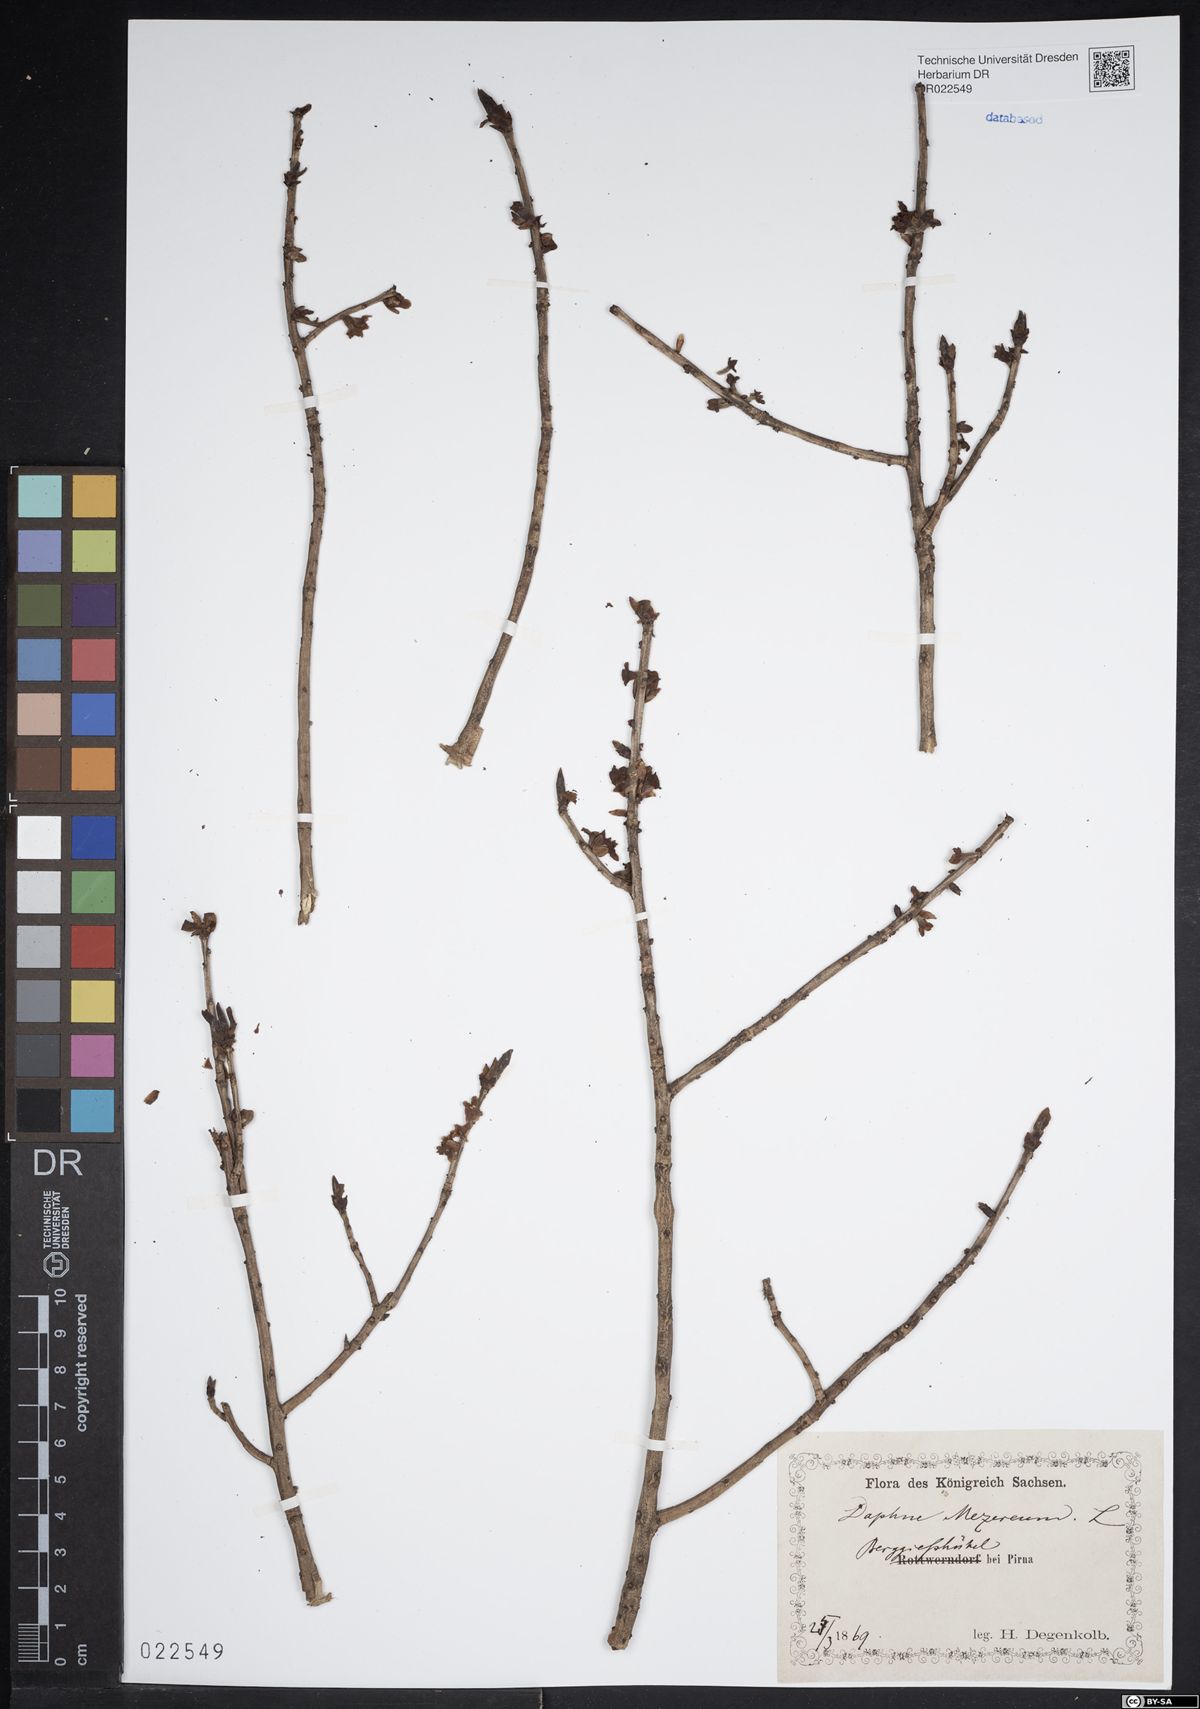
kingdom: Plantae
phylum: Tracheophyta
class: Magnoliopsida
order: Malvales
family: Thymelaeaceae
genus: Daphne
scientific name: Daphne mezereum
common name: Mezereon
